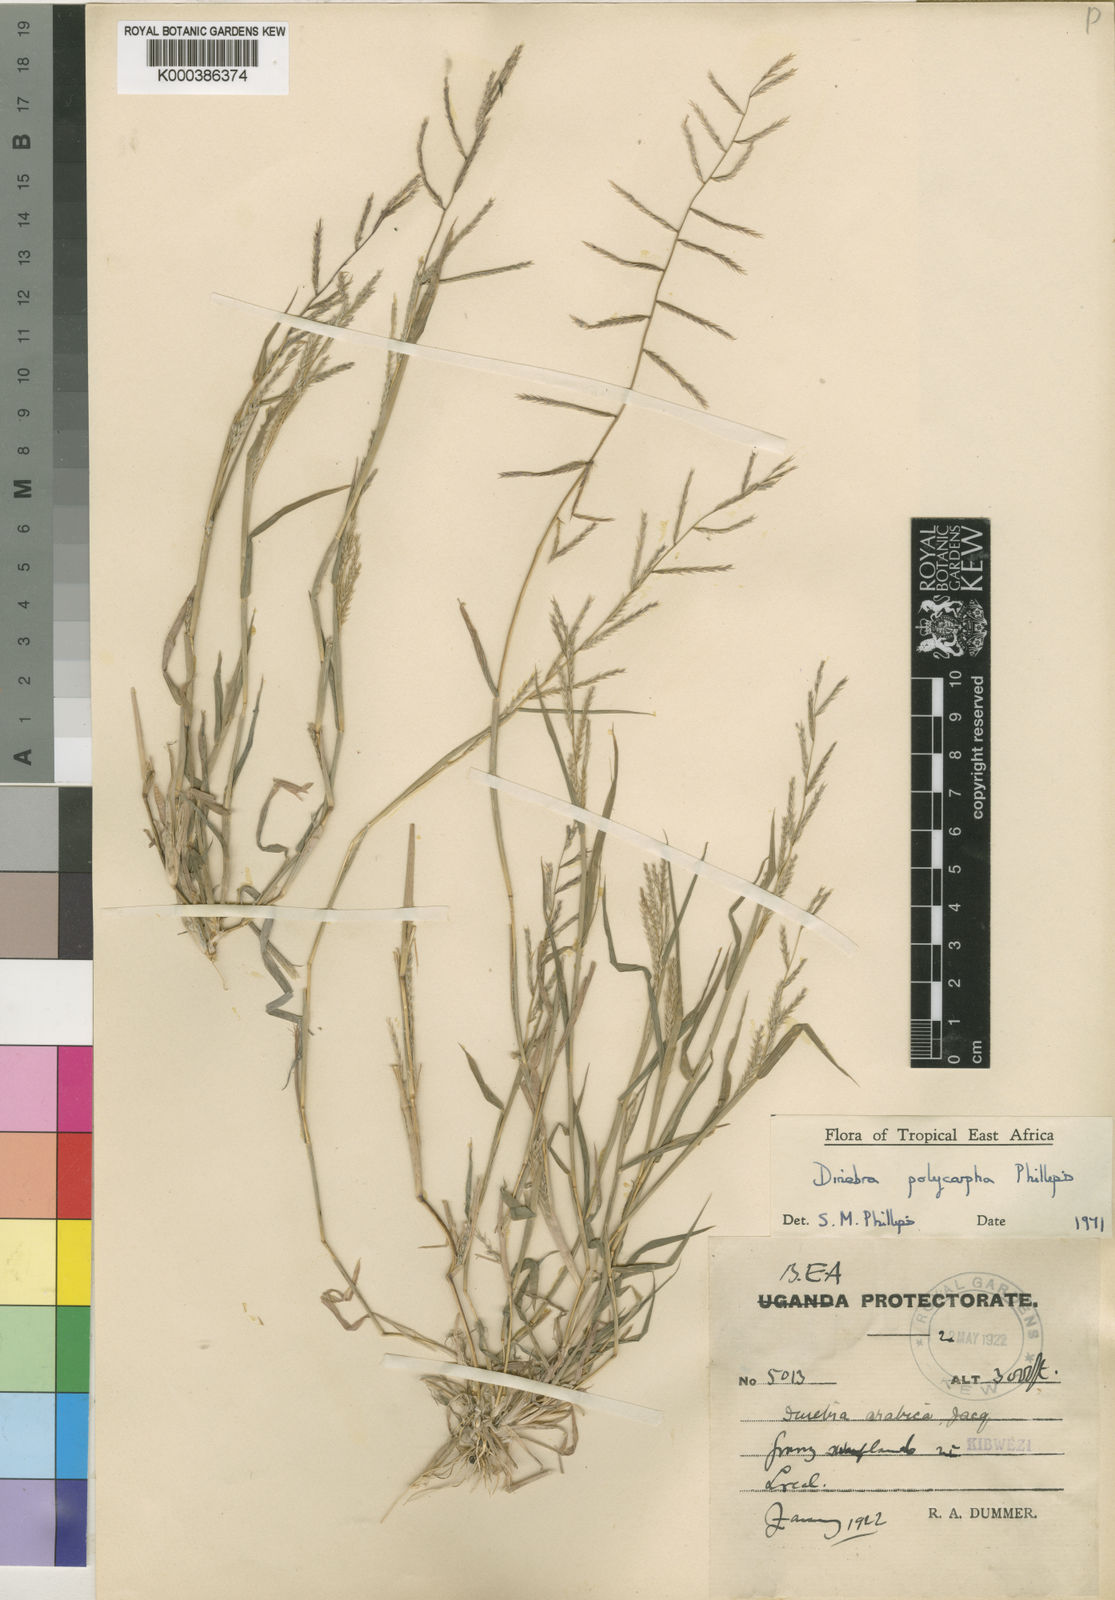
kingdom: Plantae
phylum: Tracheophyta
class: Liliopsida
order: Poales
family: Poaceae
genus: Dinebra
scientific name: Dinebra
